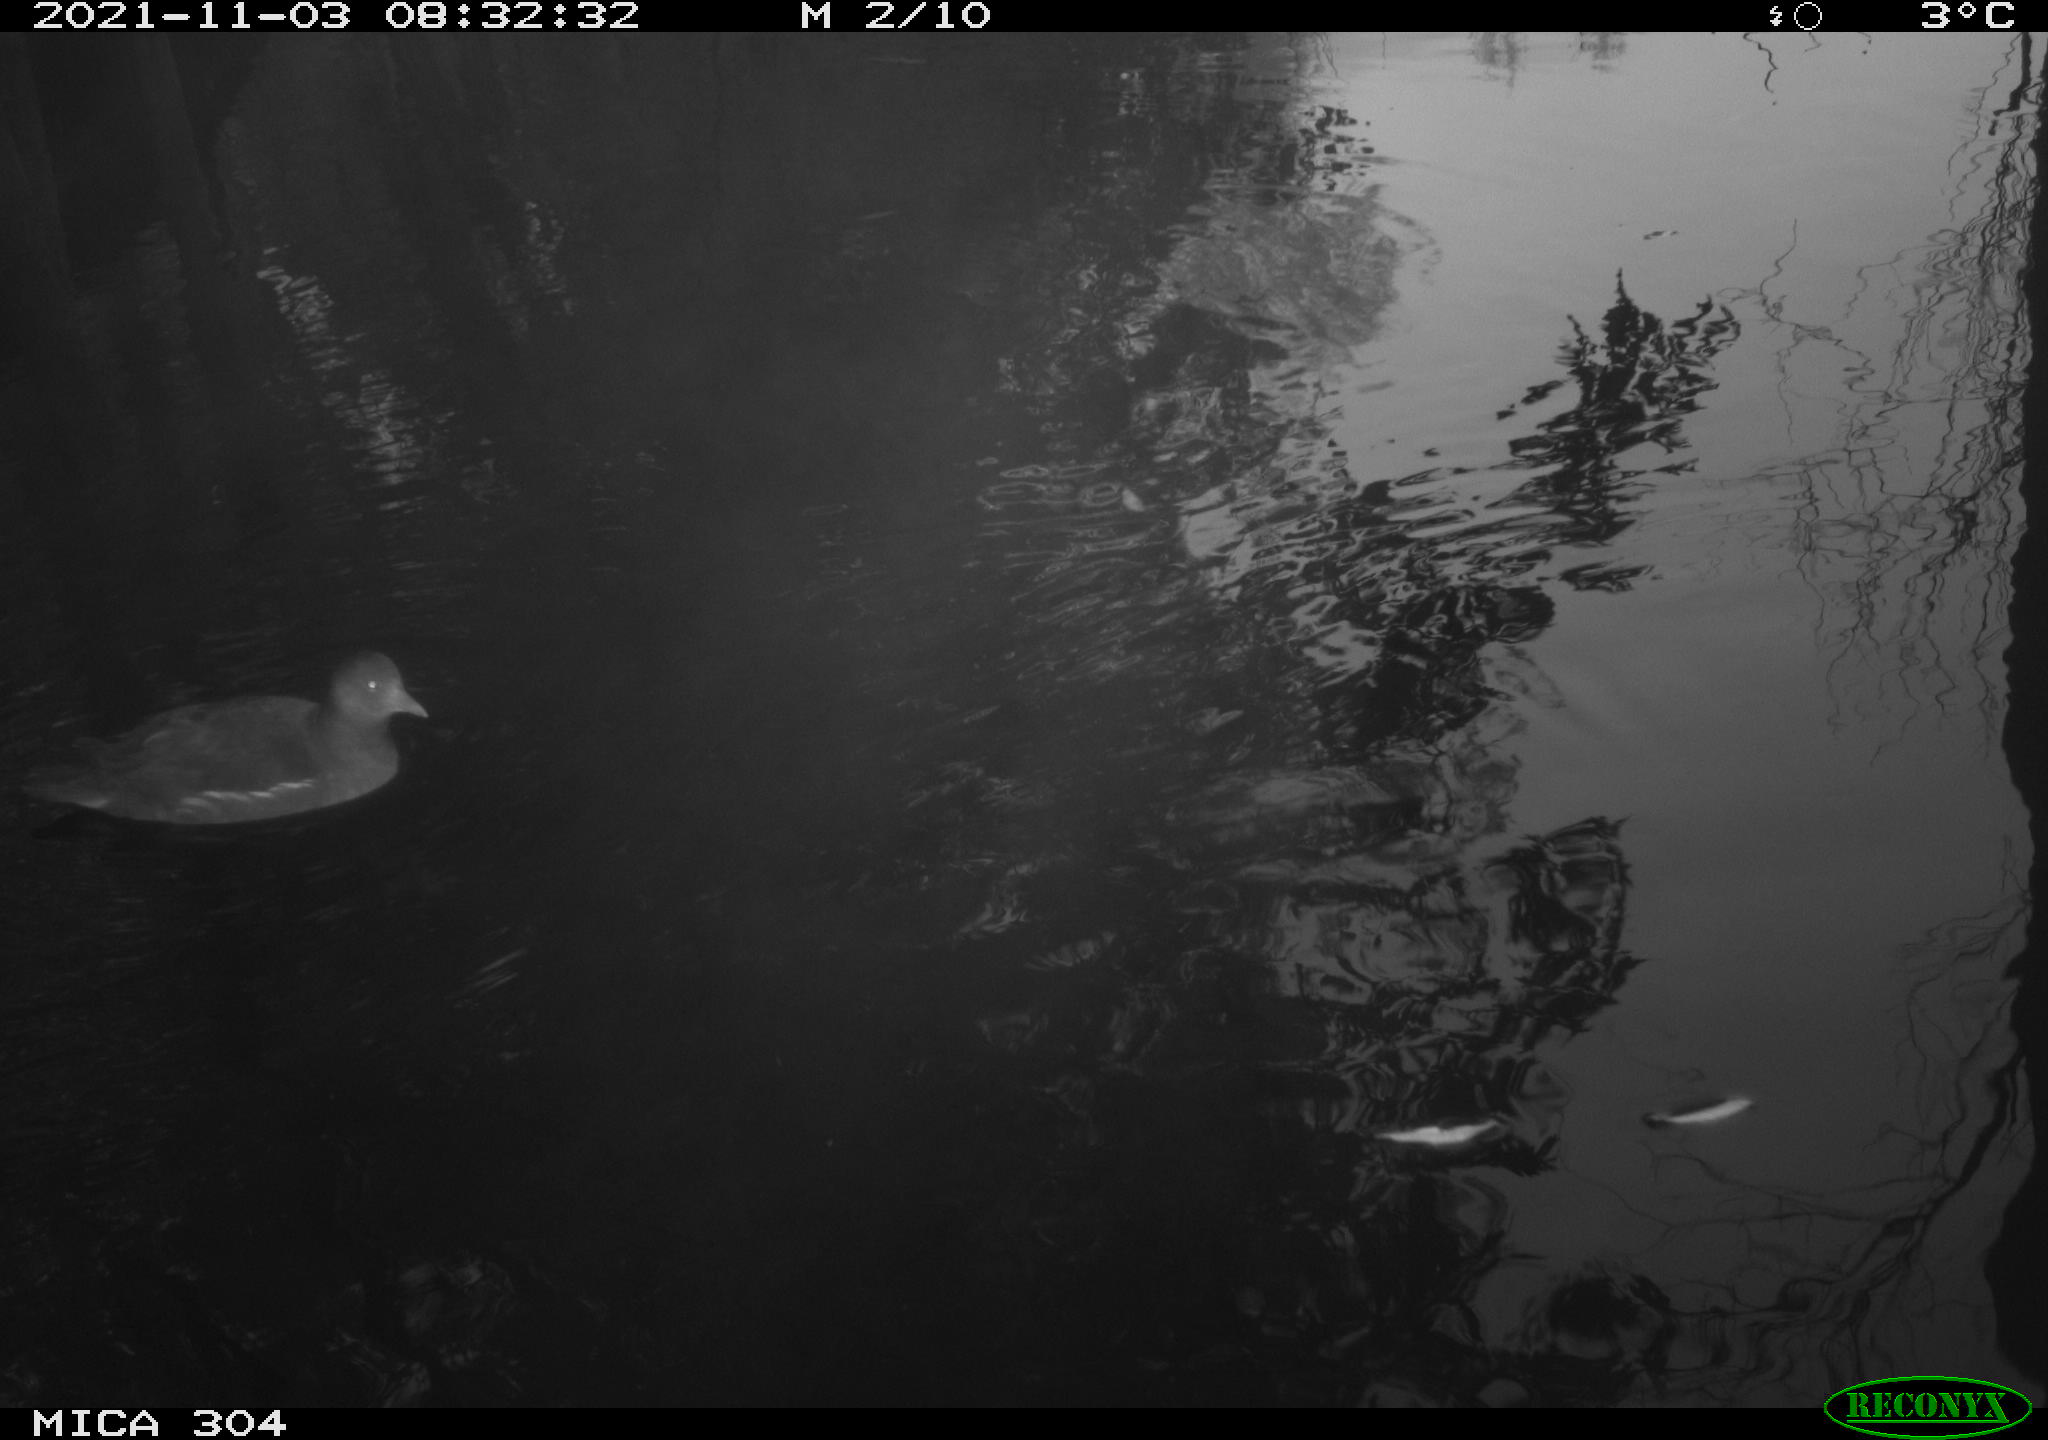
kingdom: Animalia
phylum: Chordata
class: Aves
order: Gruiformes
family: Rallidae
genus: Gallinula
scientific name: Gallinula chloropus
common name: Common moorhen
